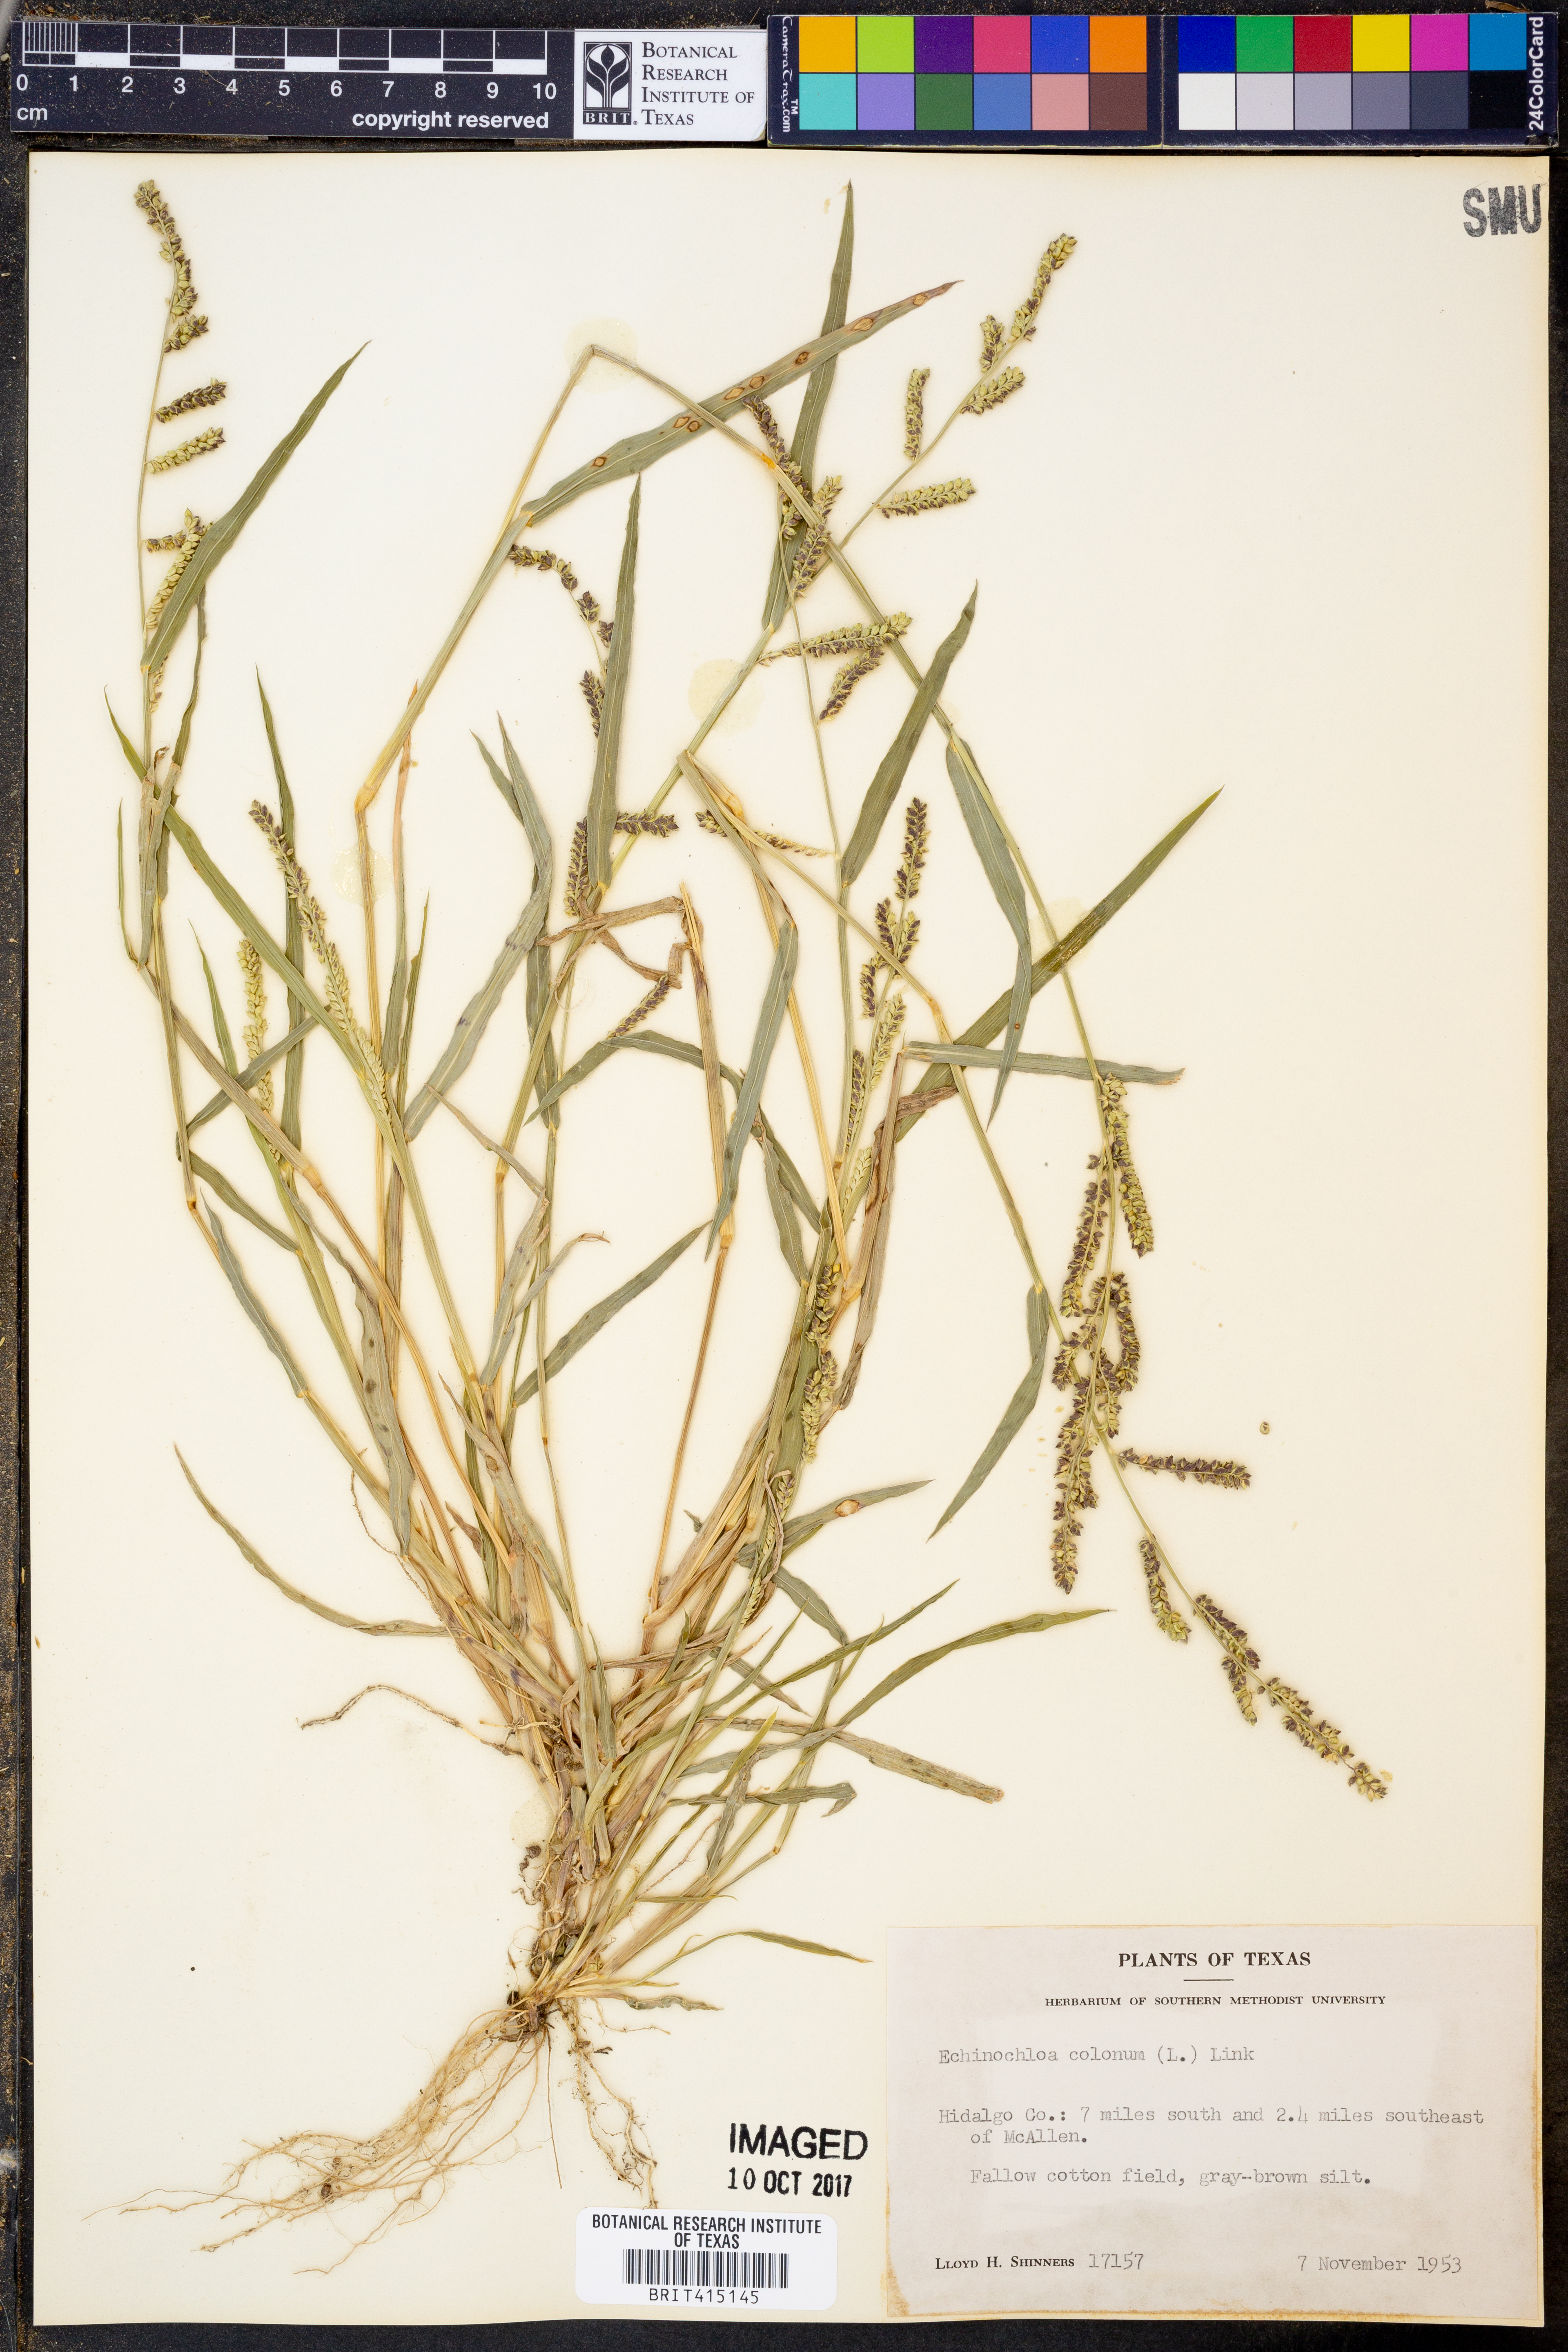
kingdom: Plantae
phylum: Tracheophyta
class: Liliopsida
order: Poales
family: Poaceae
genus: Echinochloa
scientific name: Echinochloa colonum
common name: Jungle rice
